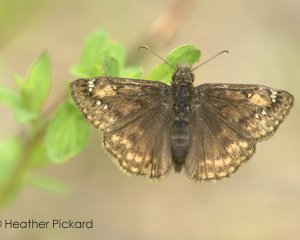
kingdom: Animalia
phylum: Arthropoda
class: Insecta
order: Lepidoptera
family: Hesperiidae
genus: Gesta
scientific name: Gesta
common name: Juvenal's Duskywing
